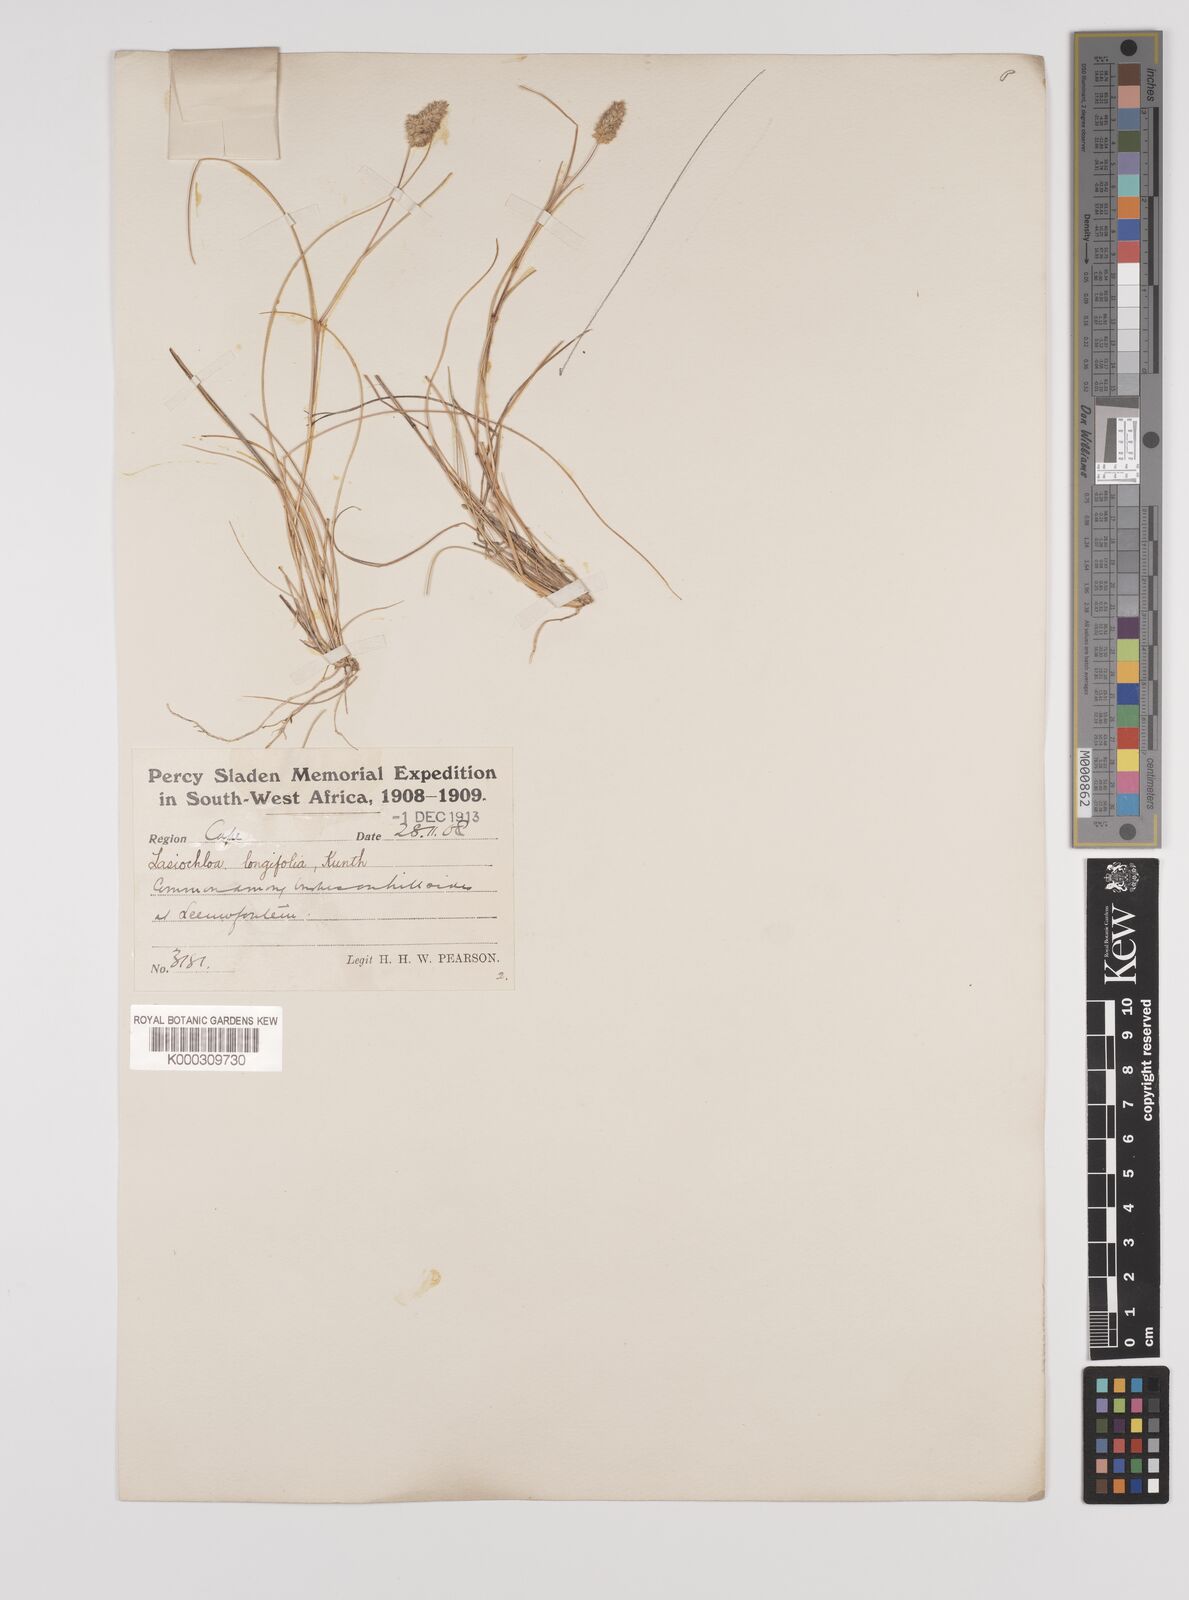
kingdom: Plantae
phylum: Tracheophyta
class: Liliopsida
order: Poales
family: Poaceae
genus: Tribolium
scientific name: Tribolium hispidum
